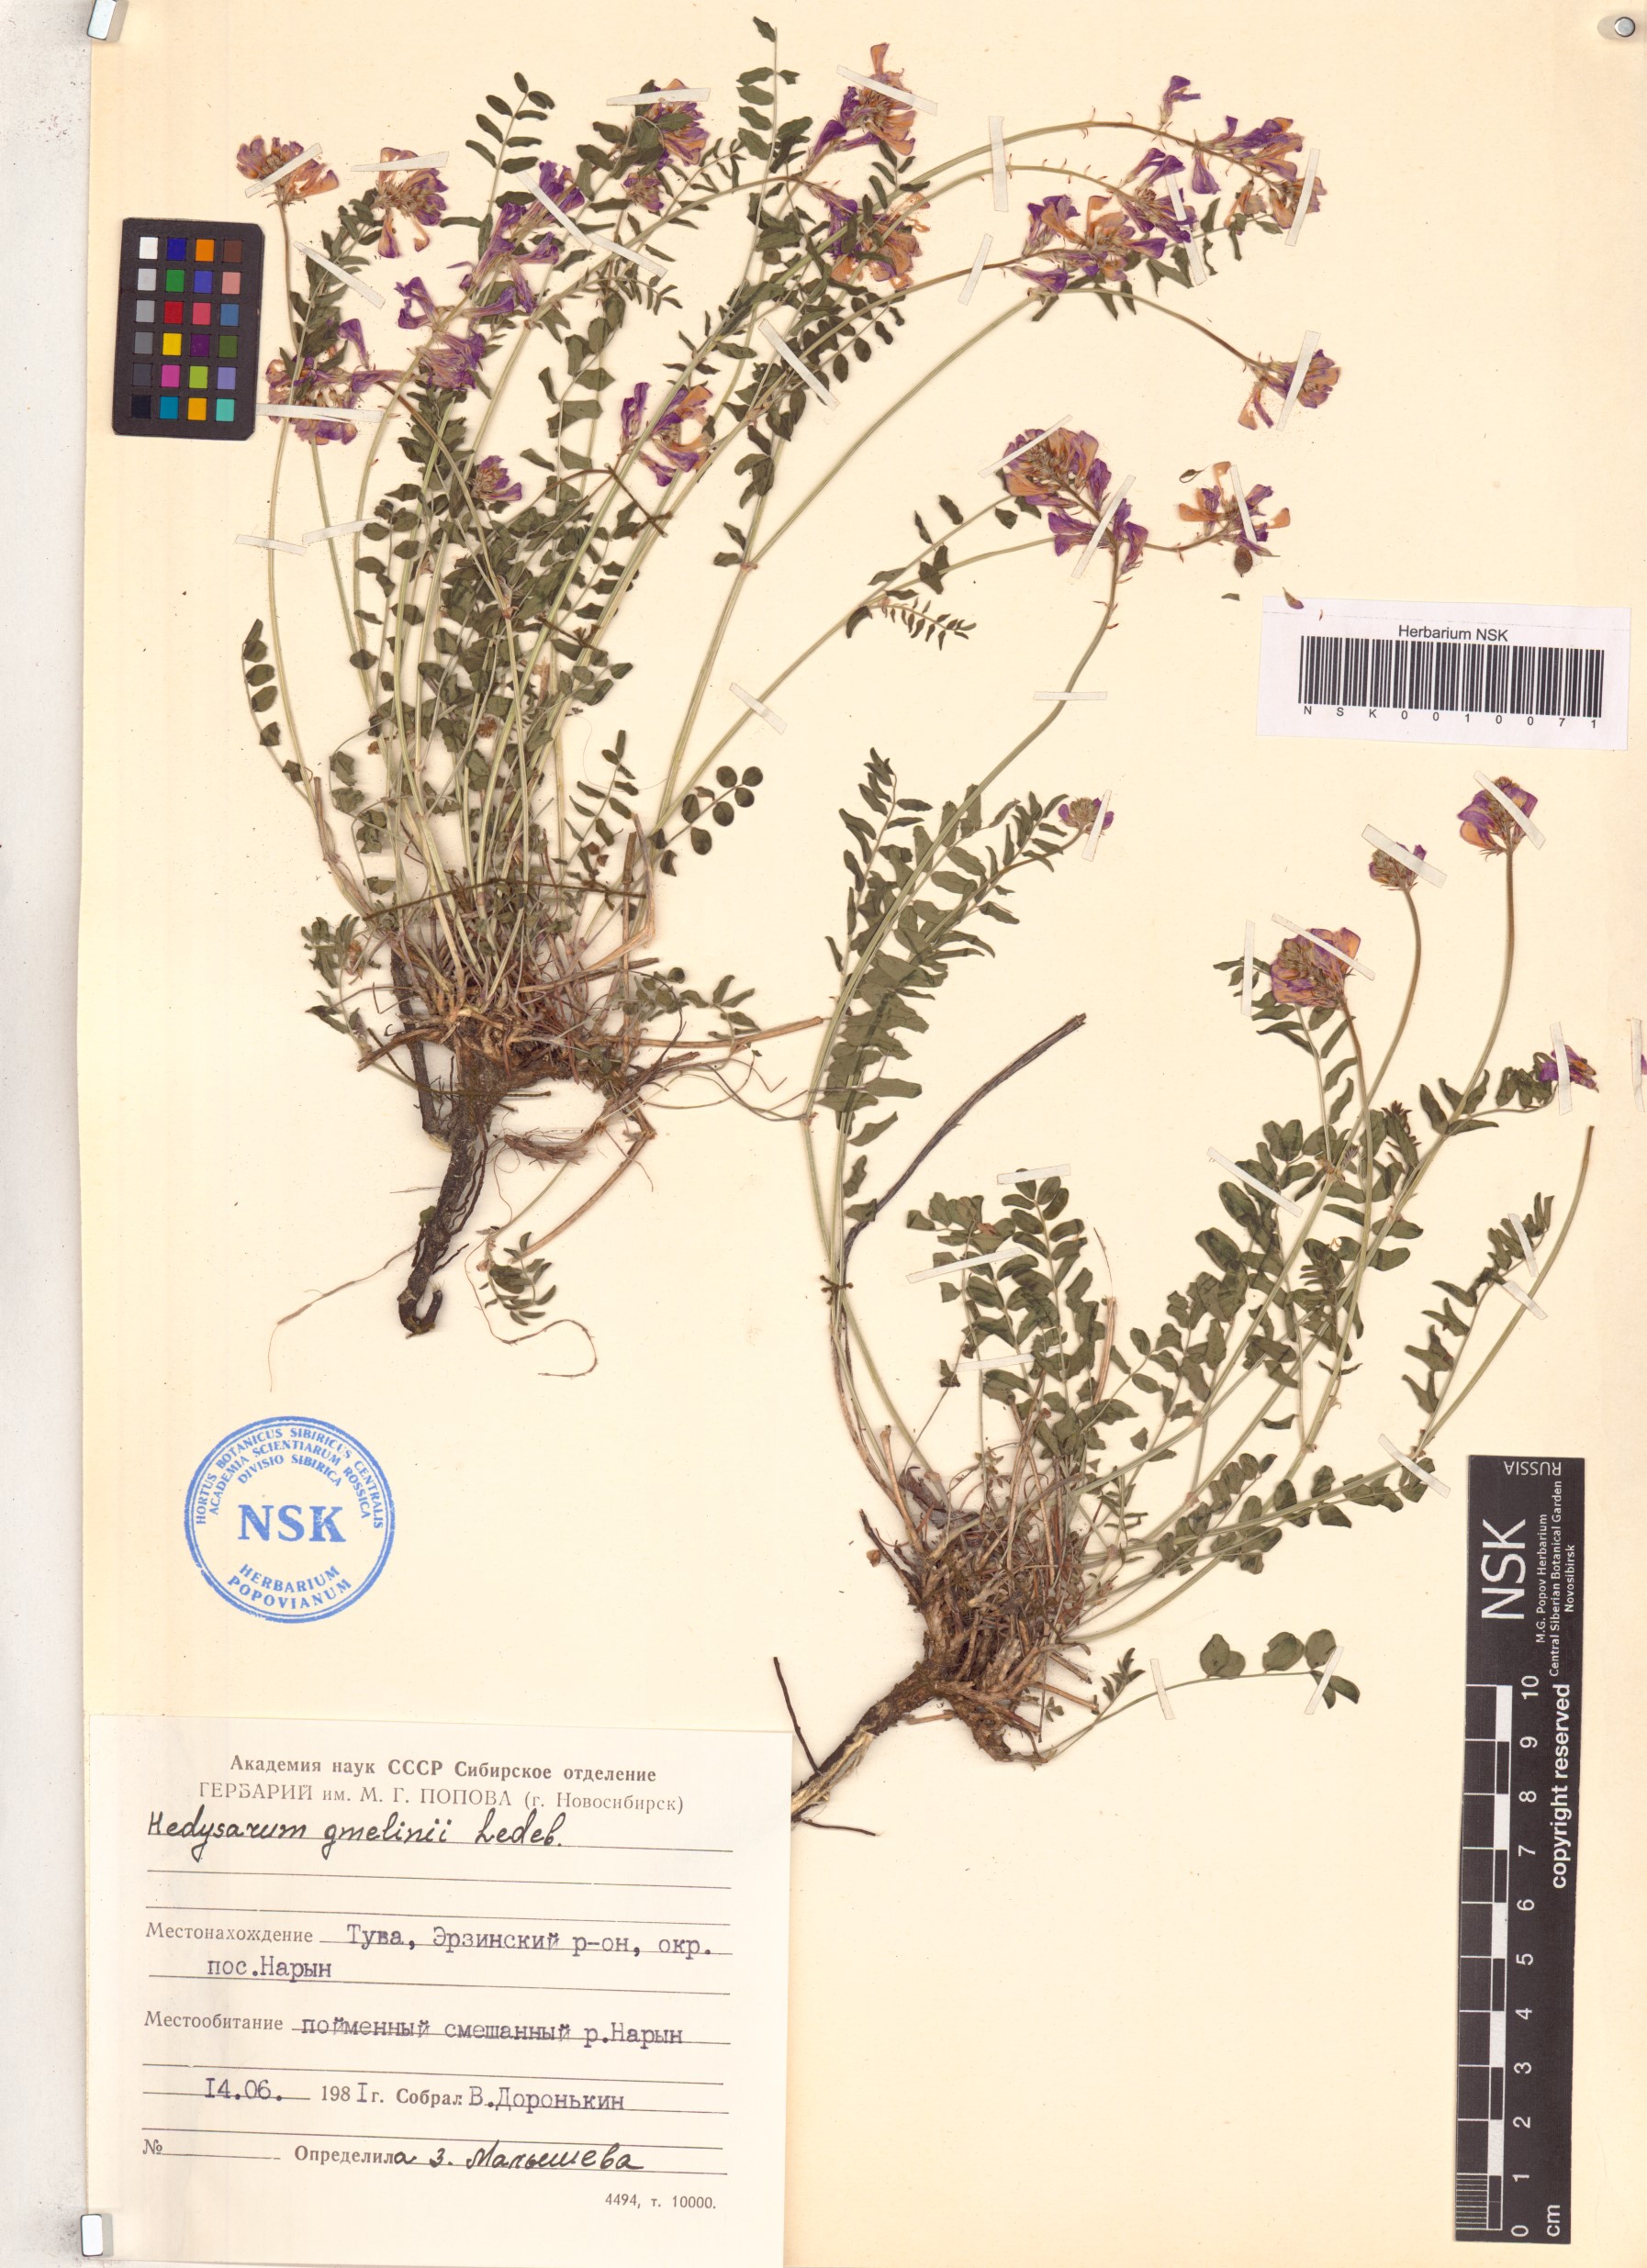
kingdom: Plantae
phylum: Tracheophyta
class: Magnoliopsida
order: Fabales
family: Fabaceae
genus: Hedysarum
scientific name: Hedysarum gmelinii
